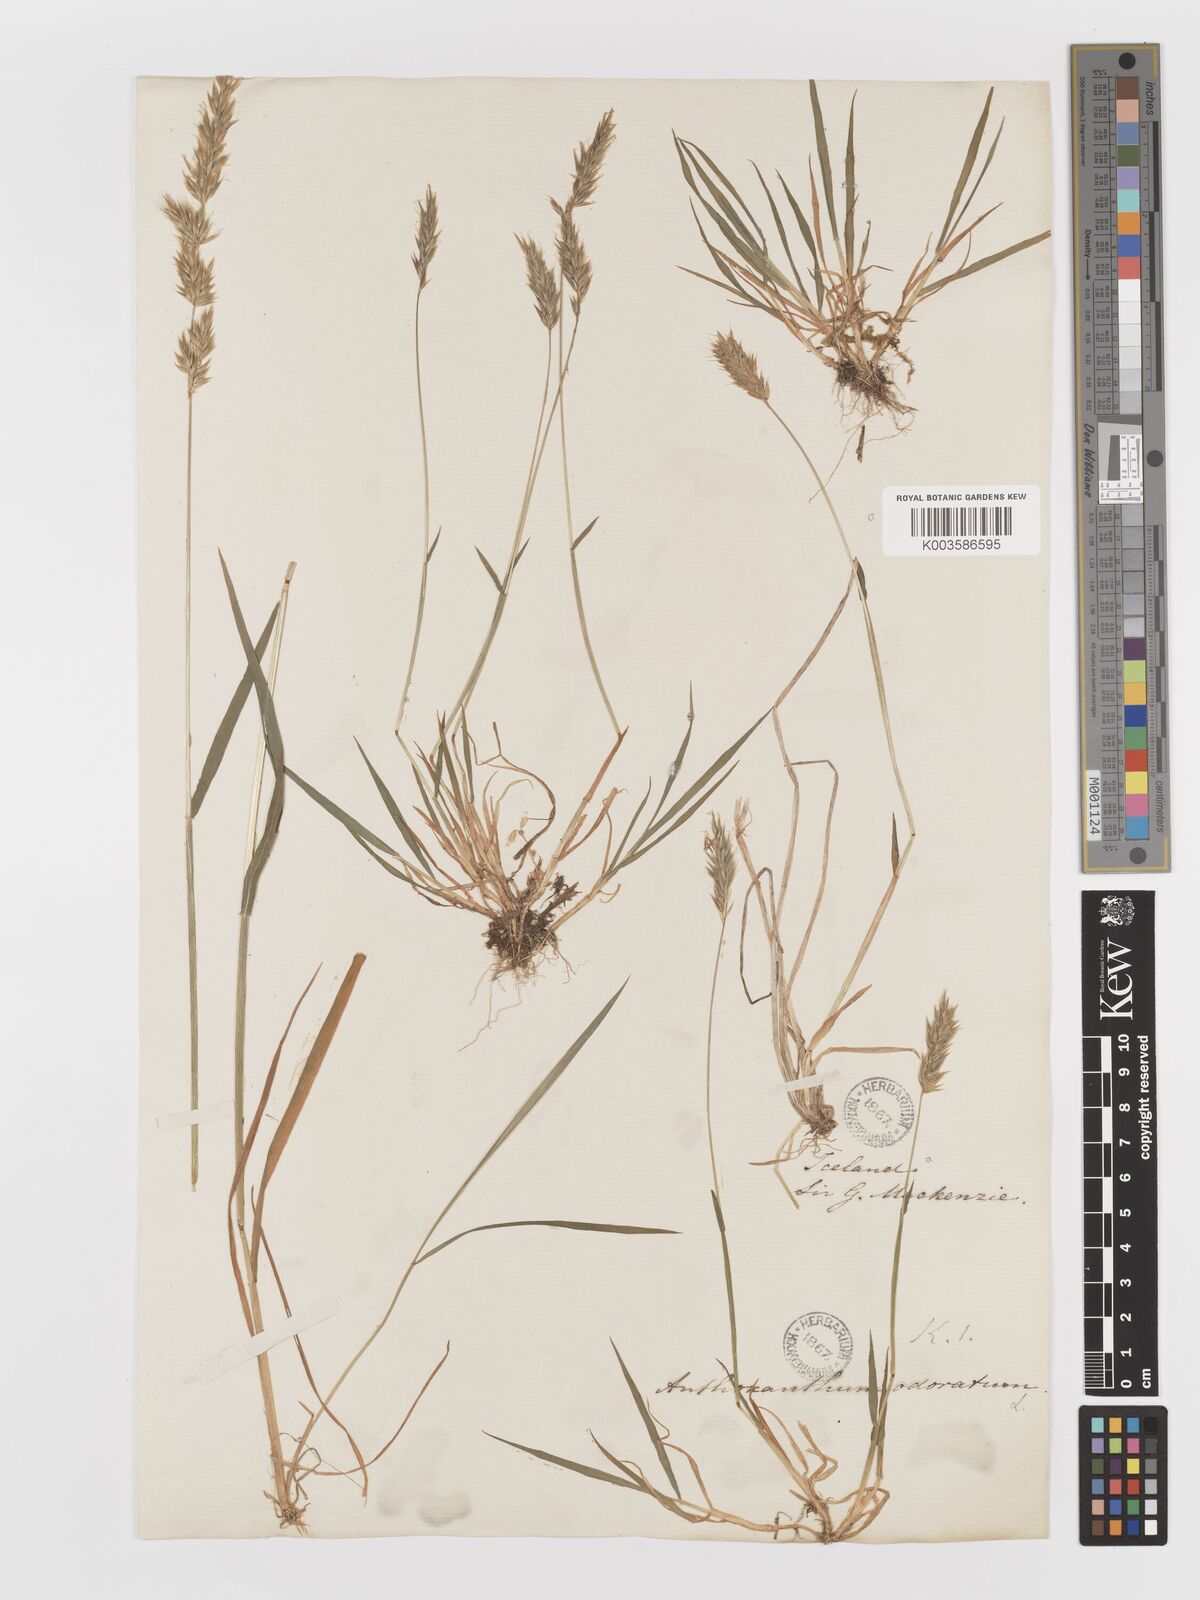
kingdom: Plantae
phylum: Tracheophyta
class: Liliopsida
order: Poales
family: Poaceae
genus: Anthoxanthum
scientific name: Anthoxanthum odoratum
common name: Sweet vernalgrass
